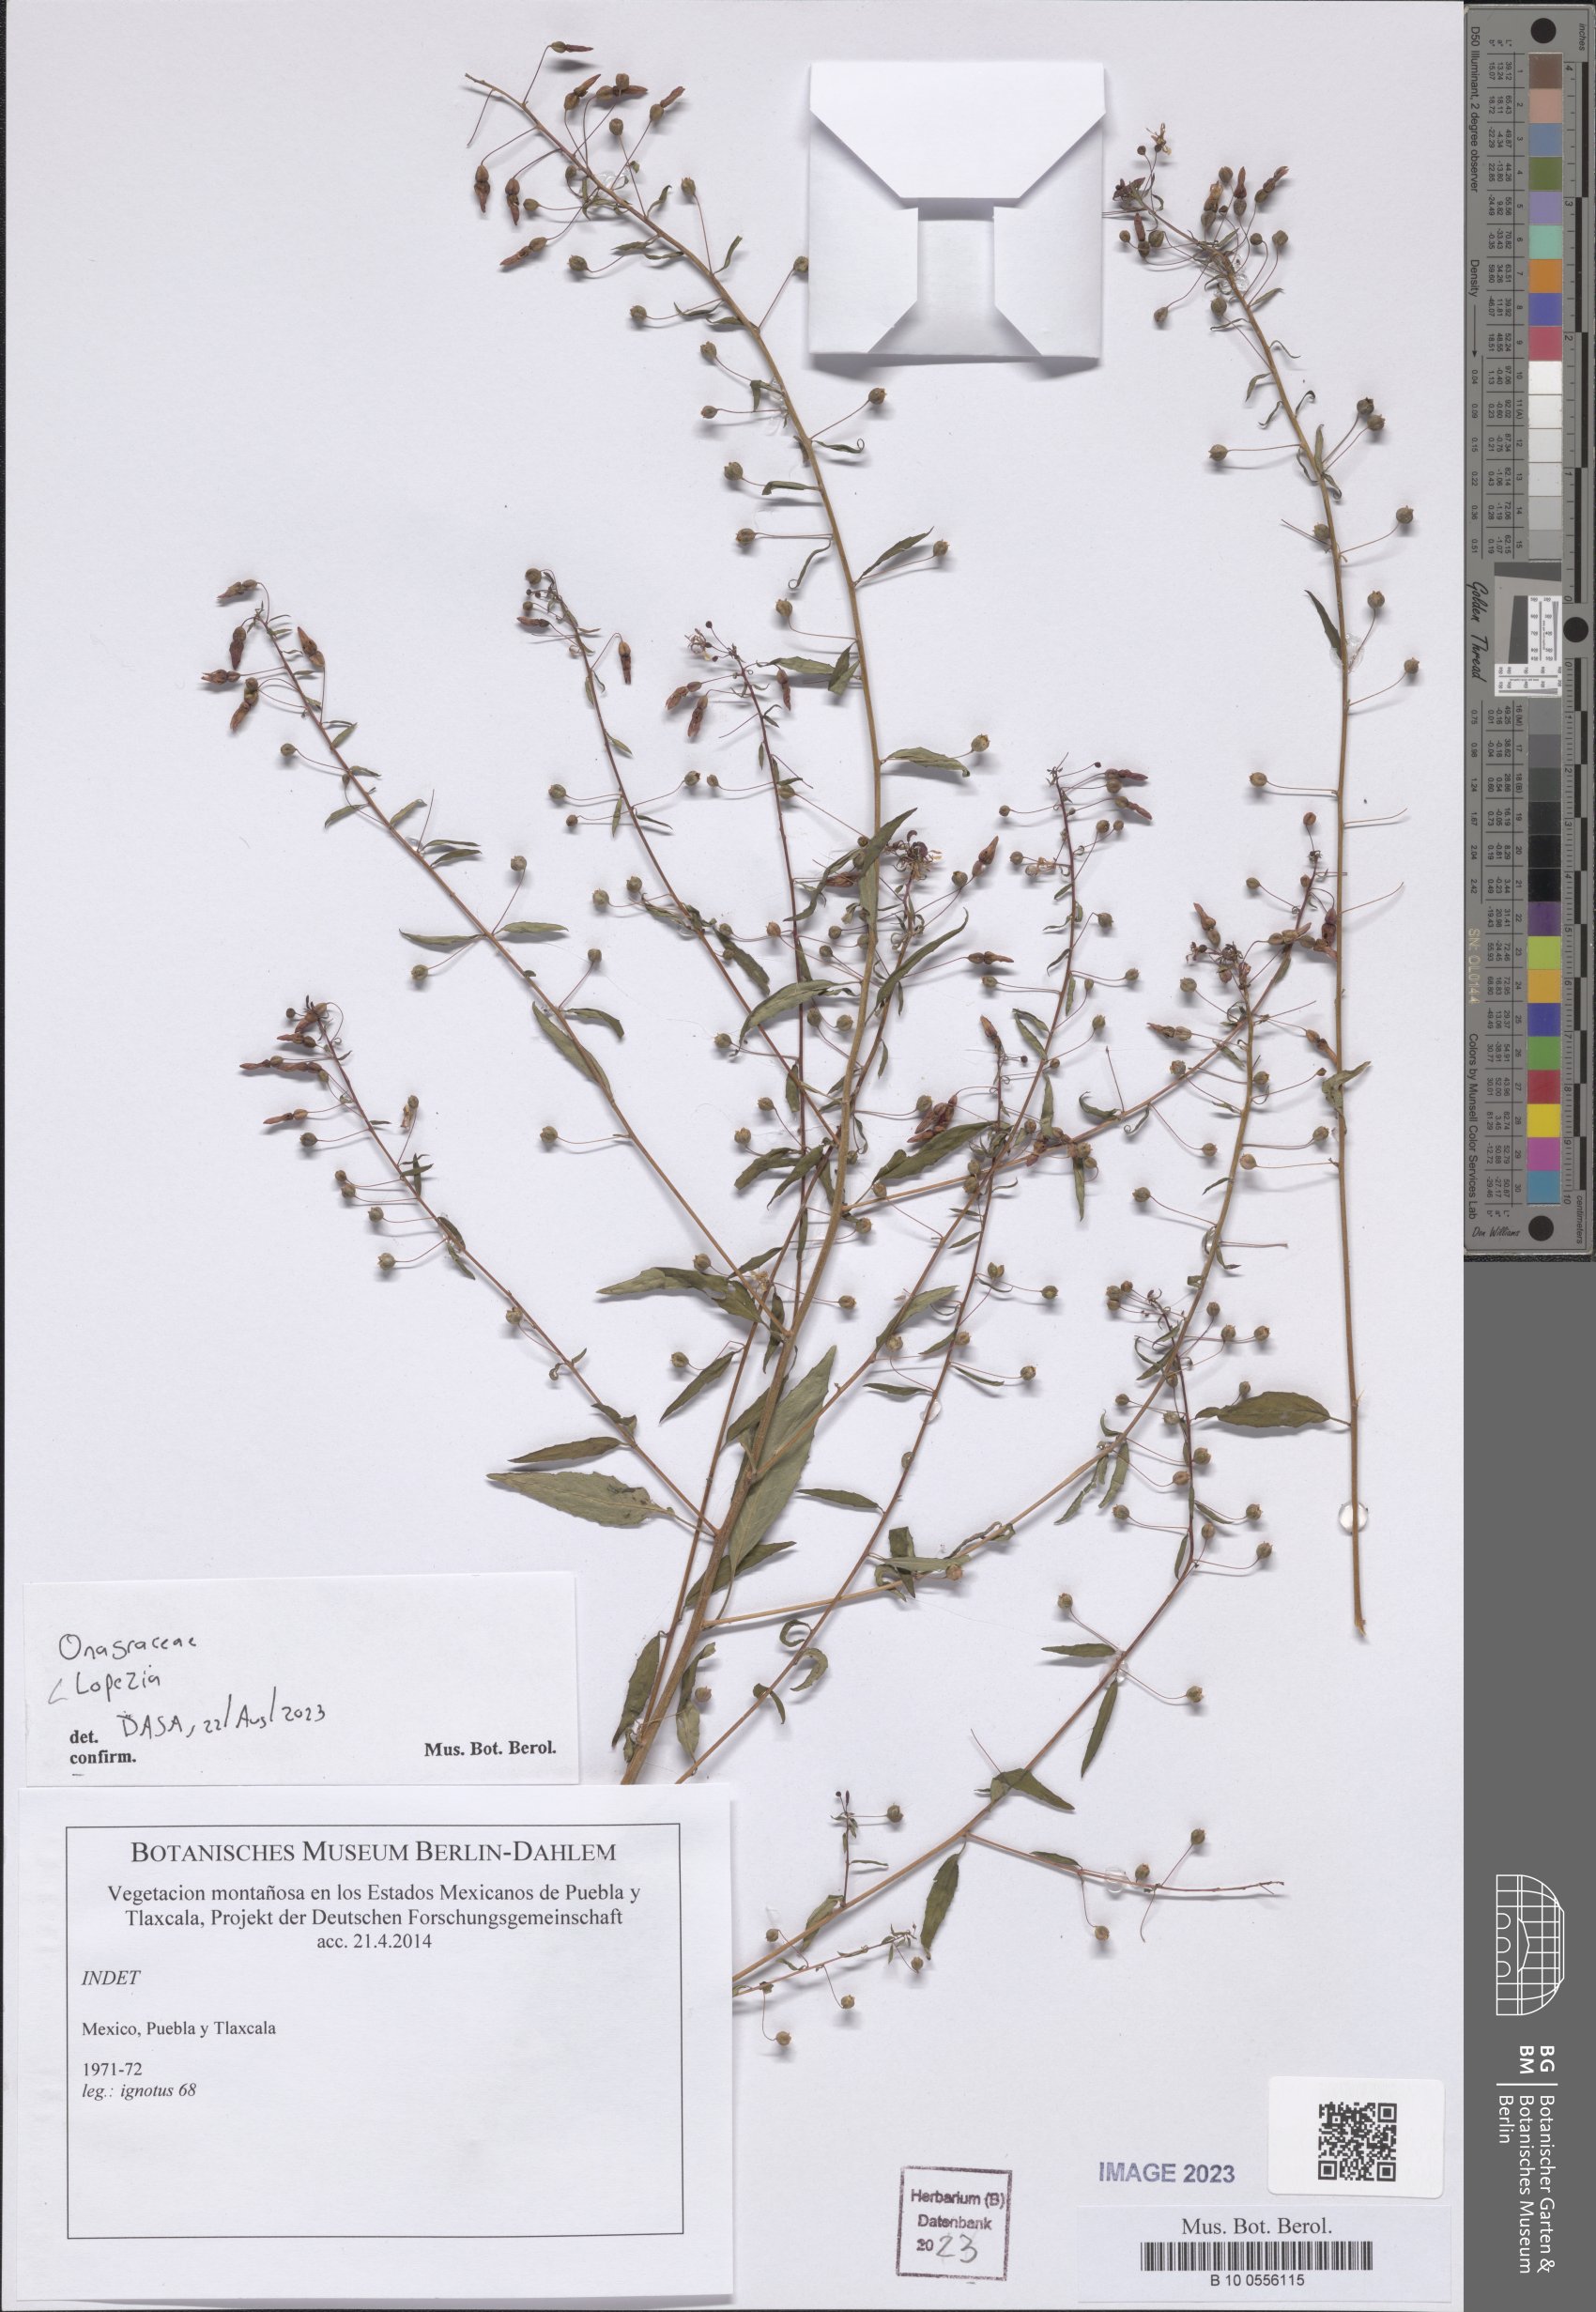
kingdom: Plantae
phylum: Tracheophyta
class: Magnoliopsida
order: Myrtales
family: Onagraceae
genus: Lopezia
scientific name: Lopezia
